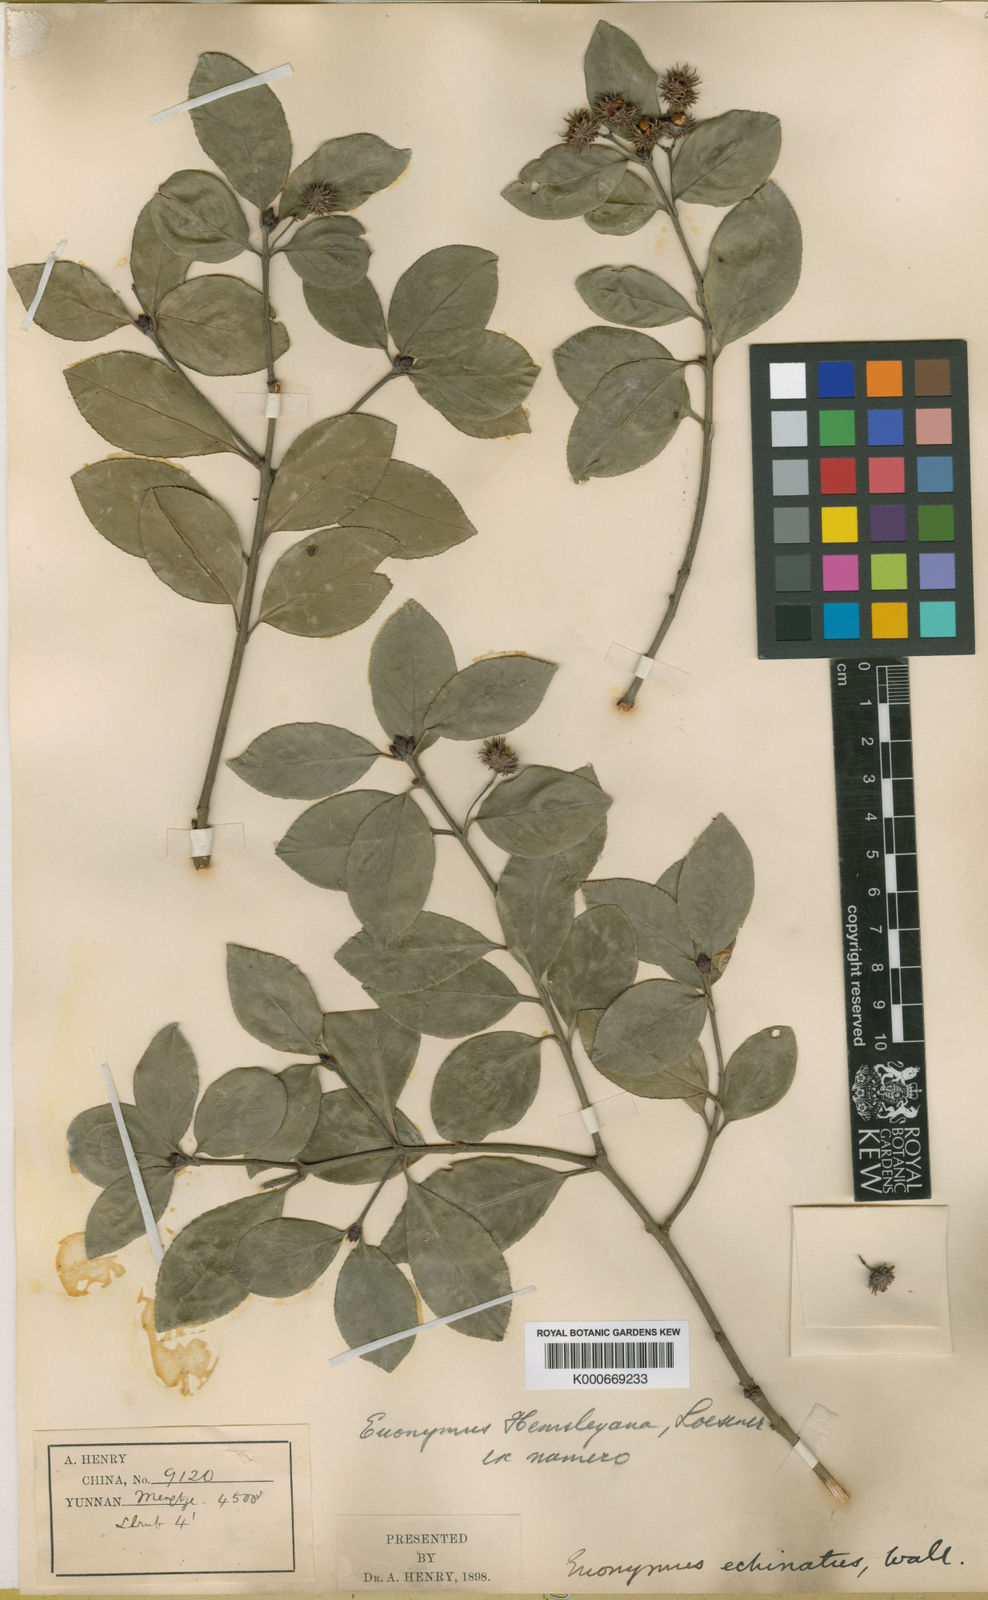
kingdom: Plantae
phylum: Tracheophyta
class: Magnoliopsida
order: Celastrales
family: Celastraceae
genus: Euonymus
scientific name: Euonymus actinocarpus
